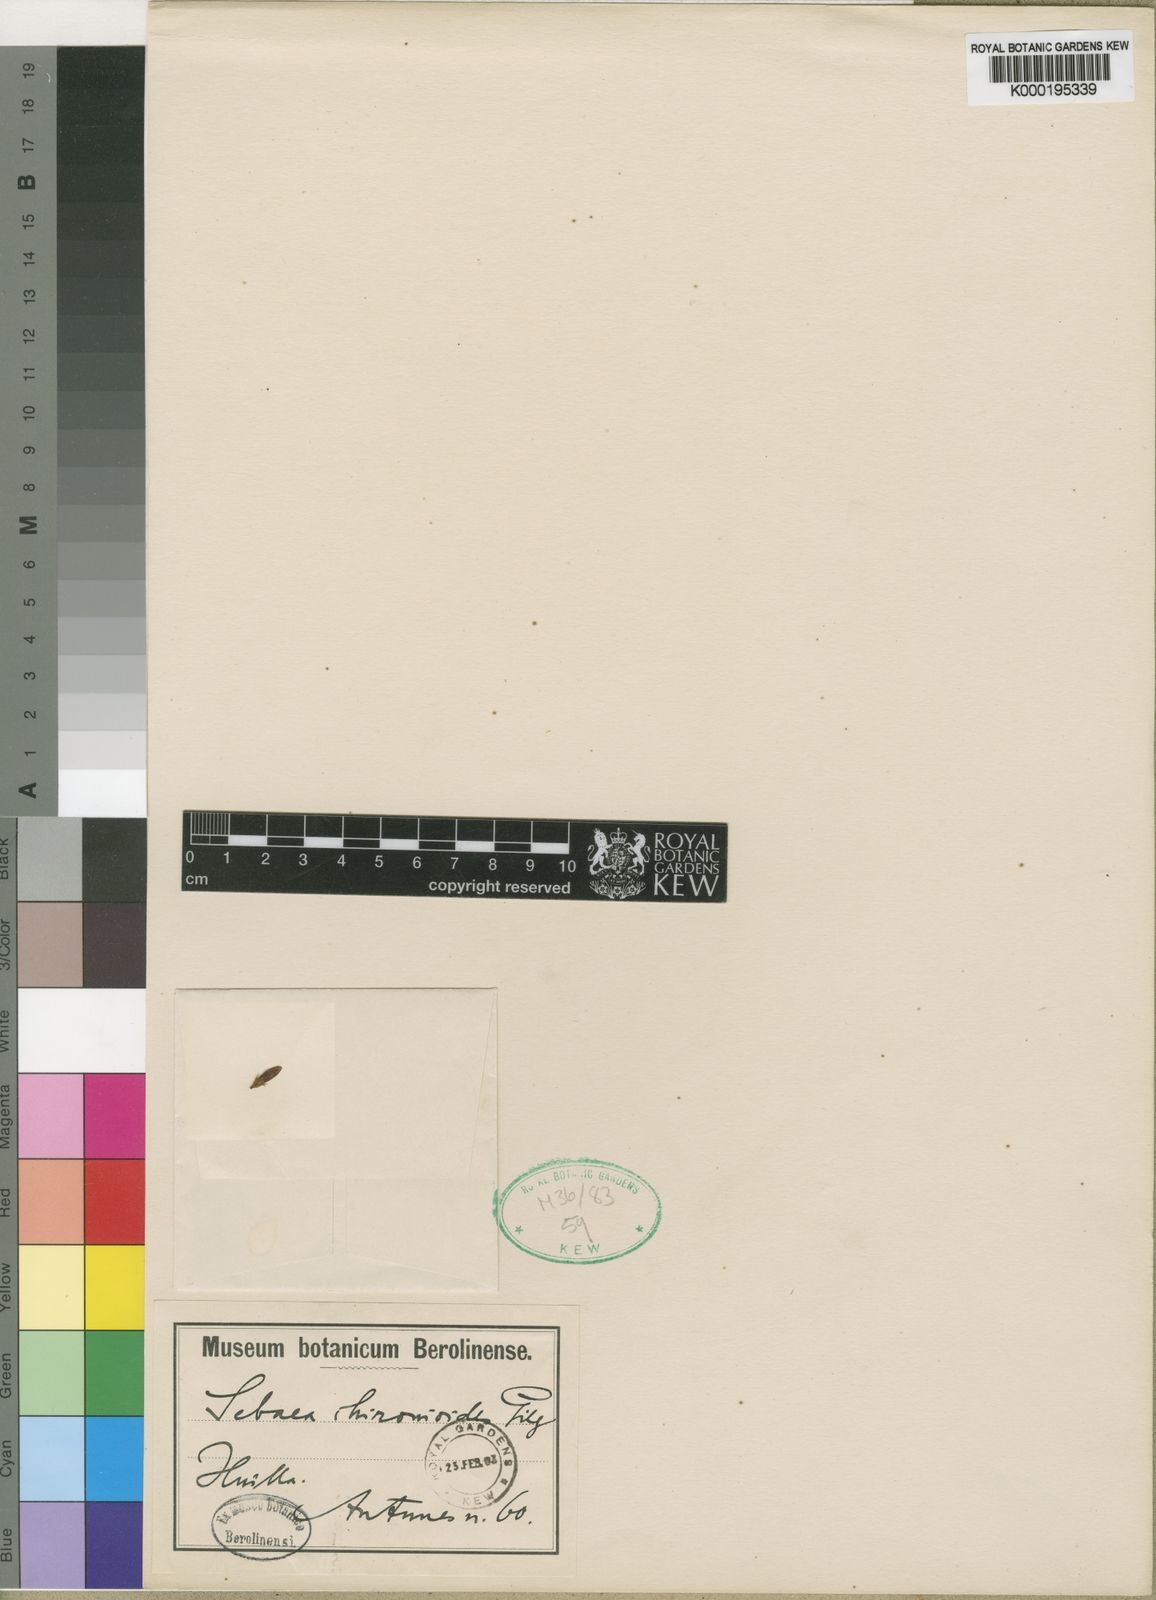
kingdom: Plantae
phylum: Tracheophyta
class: Magnoliopsida
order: Gentianales
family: Gentianaceae
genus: Sebaea
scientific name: Sebaea chironioides
